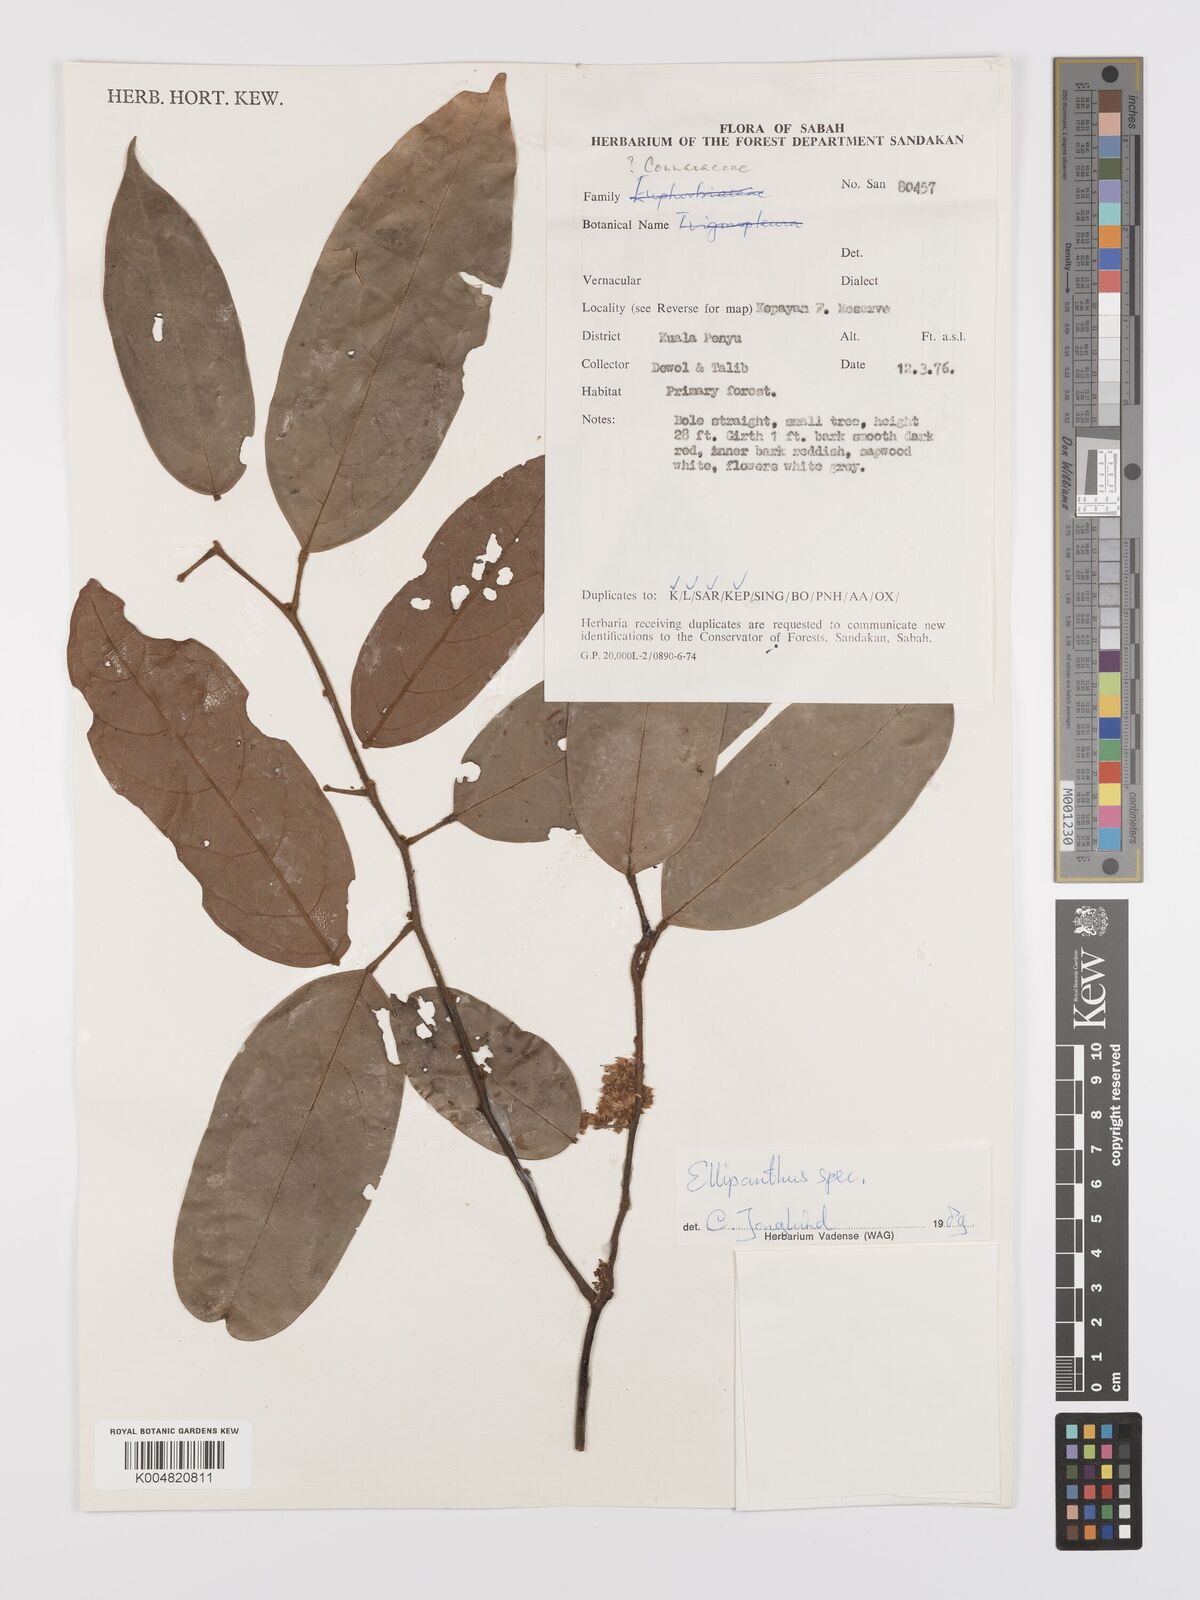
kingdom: Plantae
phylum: Tracheophyta
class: Magnoliopsida
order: Oxalidales
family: Connaraceae
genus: Ellipanthus
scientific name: Ellipanthus
